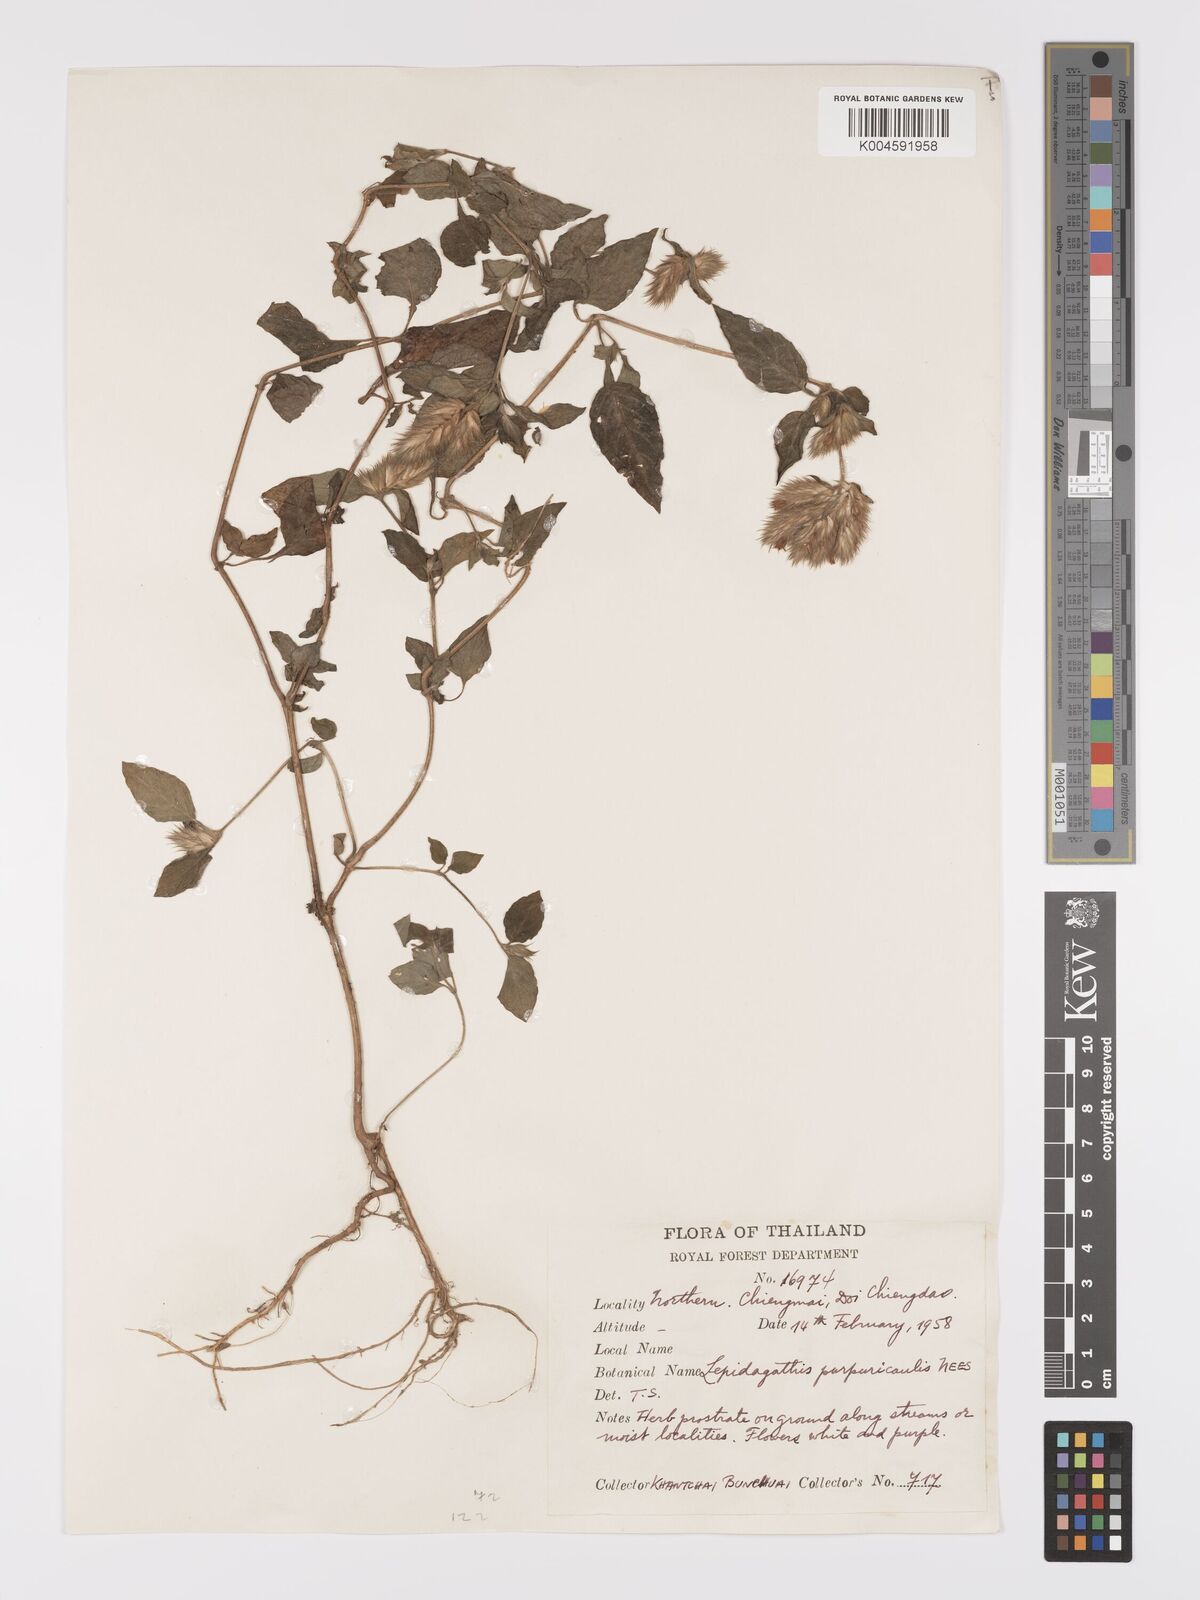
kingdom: Plantae
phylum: Tracheophyta
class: Magnoliopsida
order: Lamiales
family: Acanthaceae
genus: Lepidagathis
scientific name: Lepidagathis incurva
